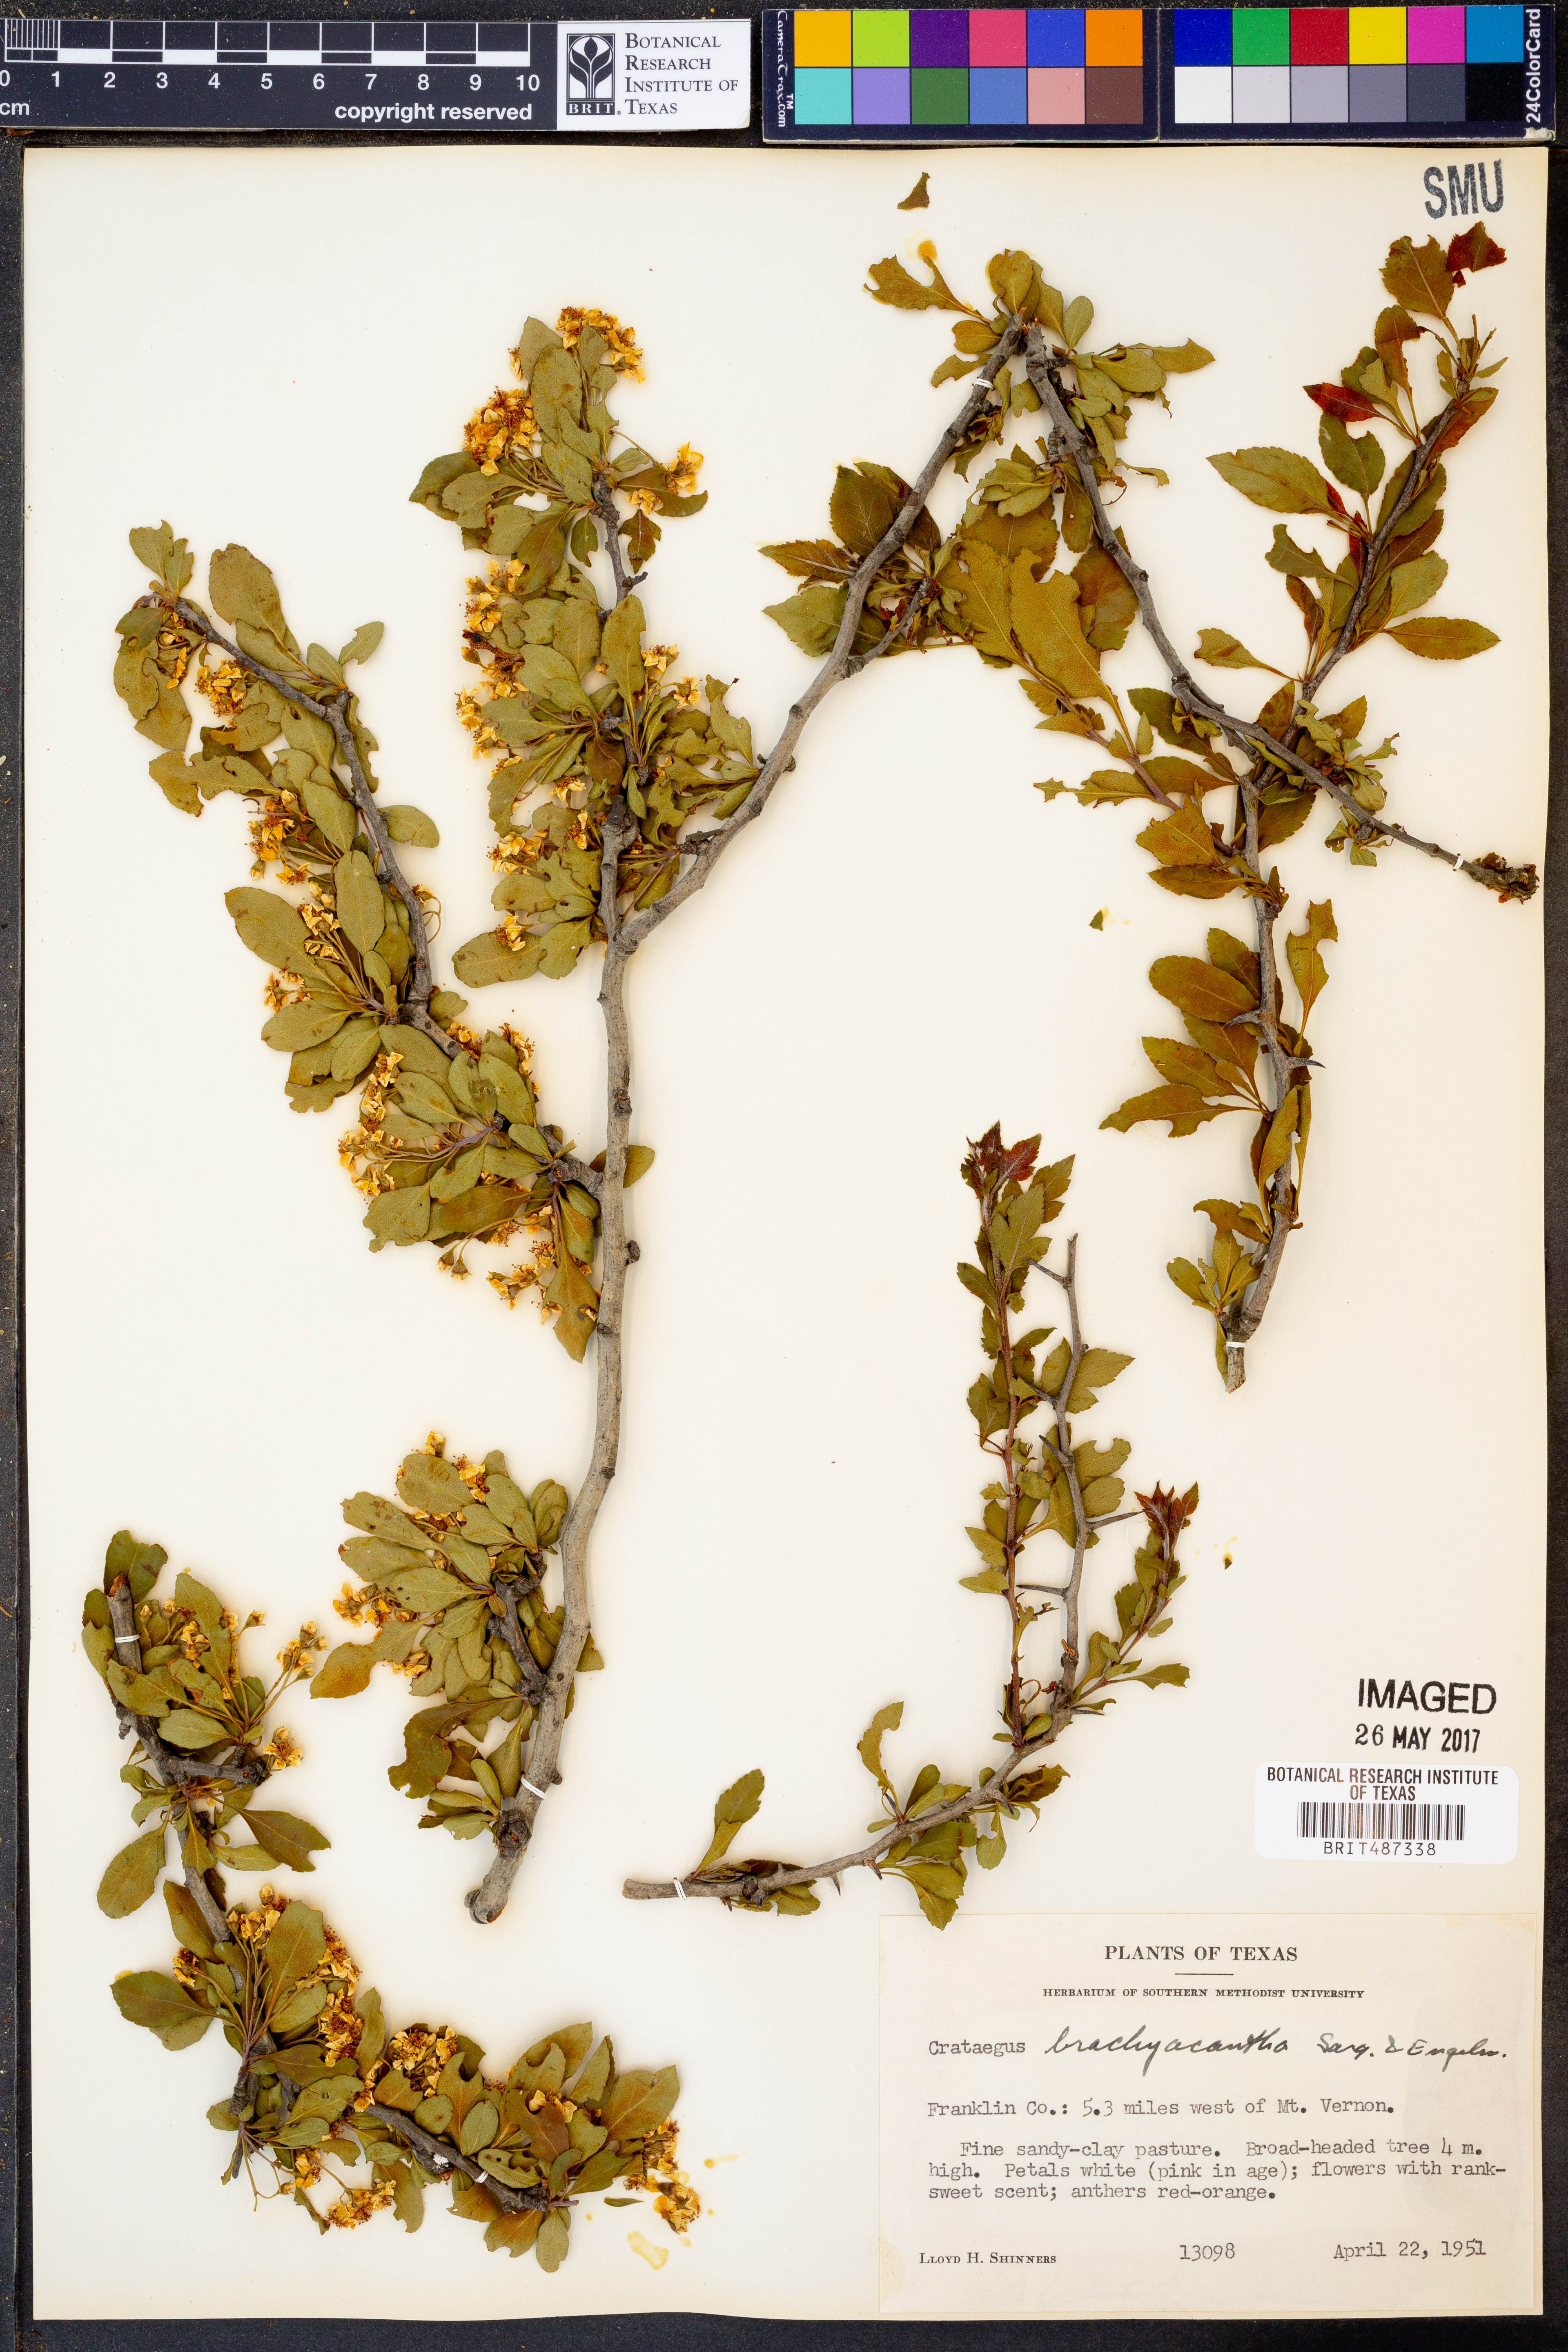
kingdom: Plantae
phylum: Tracheophyta
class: Magnoliopsida
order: Rosales
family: Rosaceae
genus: Crataegus
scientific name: Crataegus brachyacantha
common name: Blueberry-hawthorn
